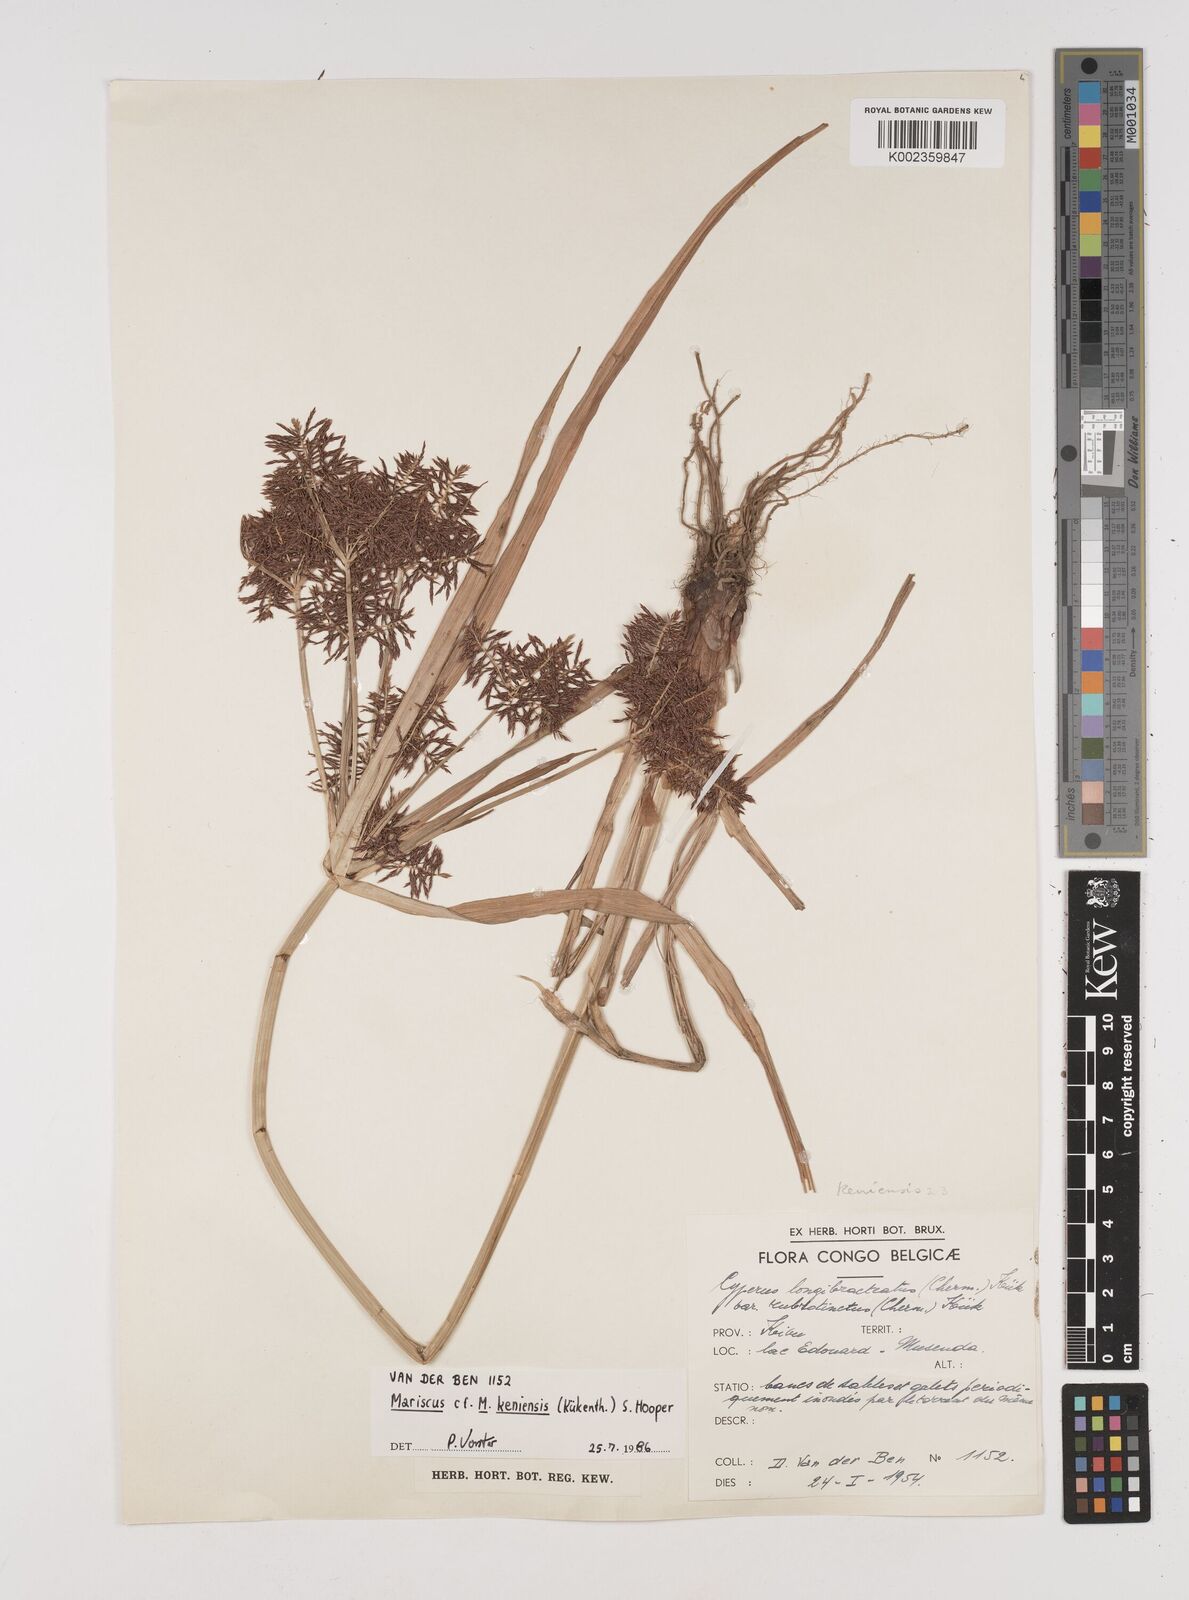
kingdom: Plantae
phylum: Tracheophyta
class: Liliopsida
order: Poales
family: Cyperaceae
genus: Cyperus
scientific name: Cyperus distans
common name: Slender cyperus
